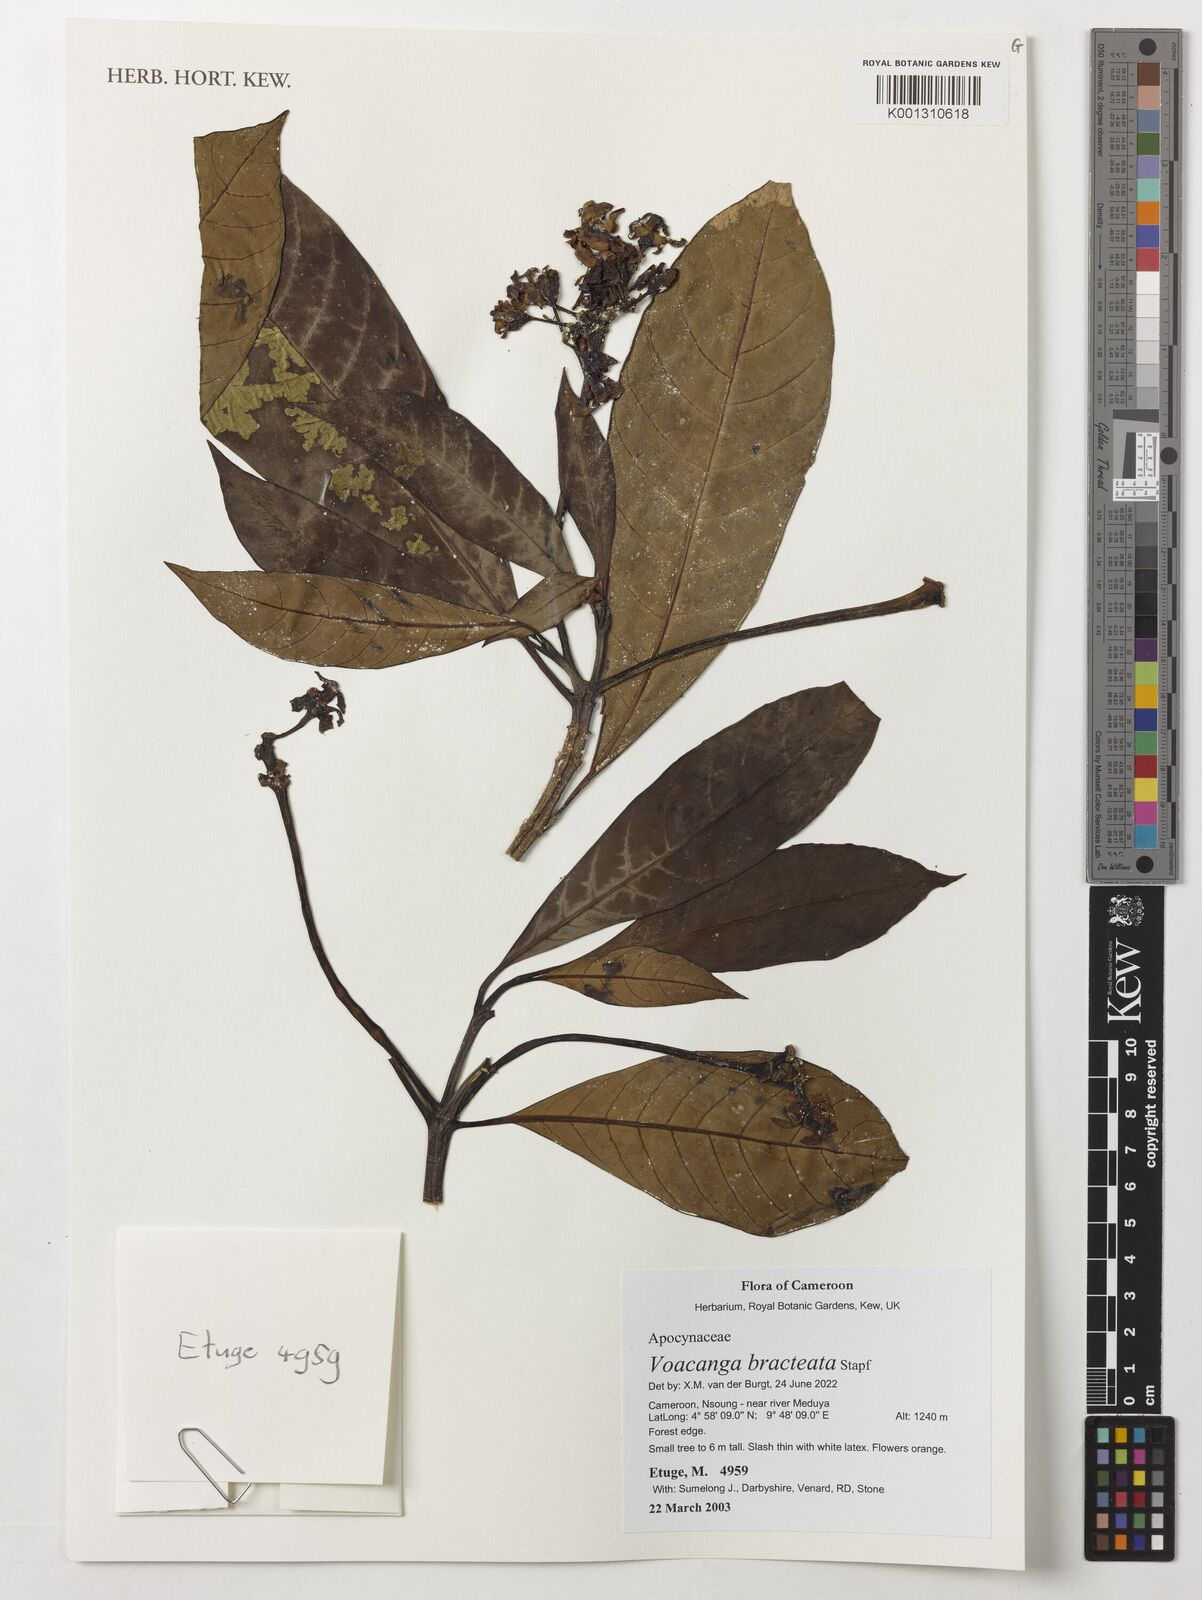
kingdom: Plantae
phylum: Tracheophyta
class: Magnoliopsida
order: Gentianales
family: Apocynaceae
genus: Voacanga
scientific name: Voacanga bracteata
